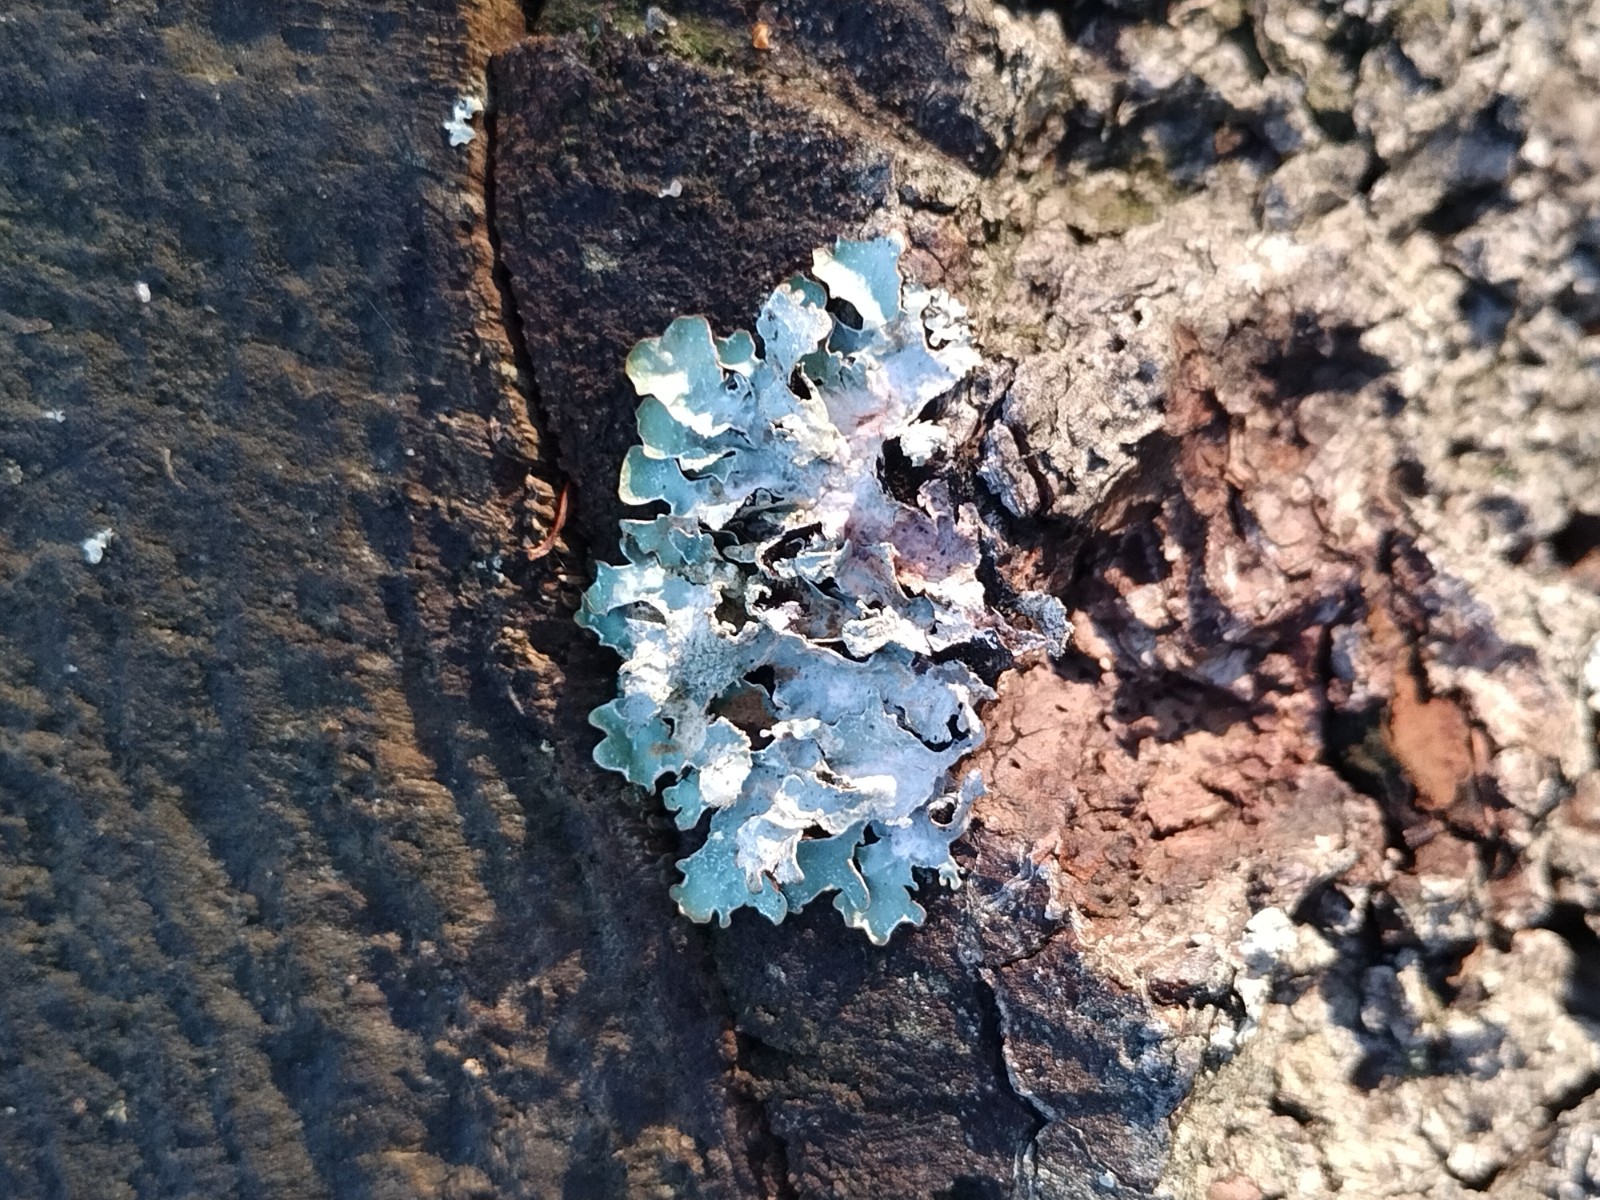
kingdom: Fungi
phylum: Ascomycota
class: Lecanoromycetes
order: Lecanorales
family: Parmeliaceae
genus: Parmelia
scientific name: Parmelia sulcata
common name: rynket skållav
